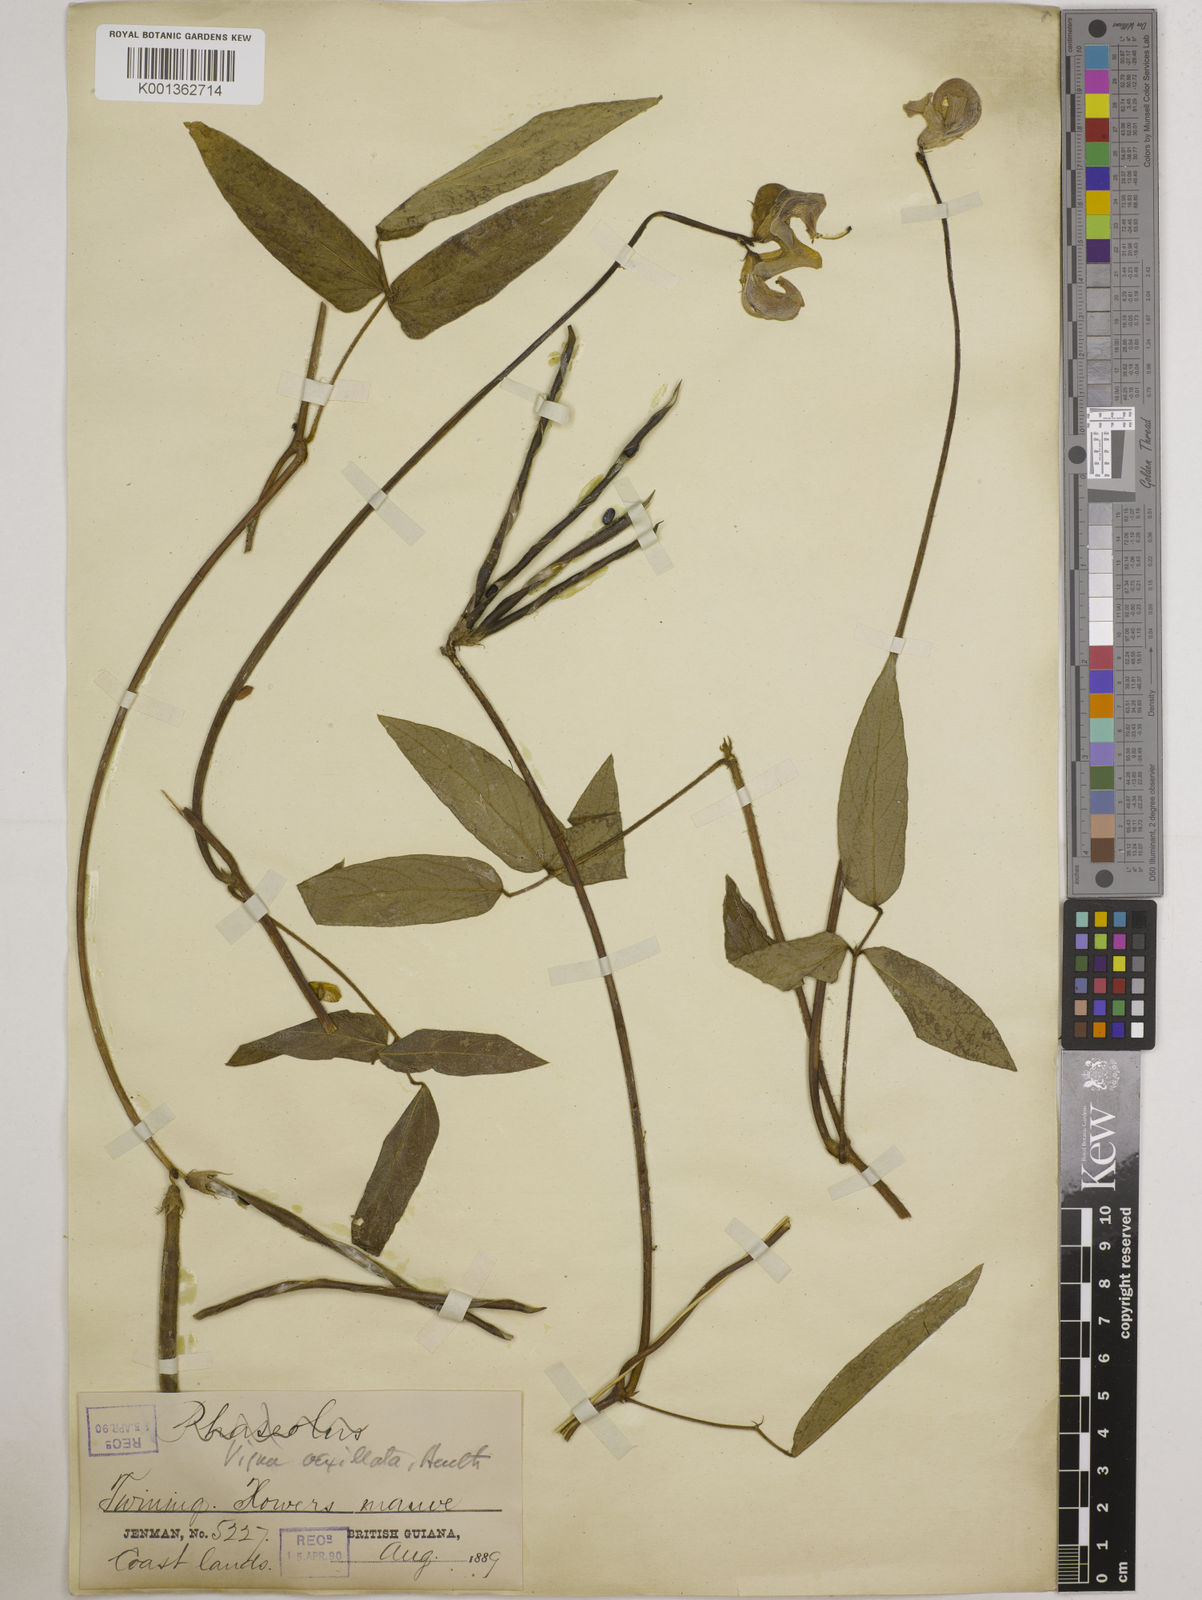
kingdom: Plantae
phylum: Tracheophyta
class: Magnoliopsida
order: Fabales
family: Fabaceae
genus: Vigna
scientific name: Vigna vexillata
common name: Zombi pea
